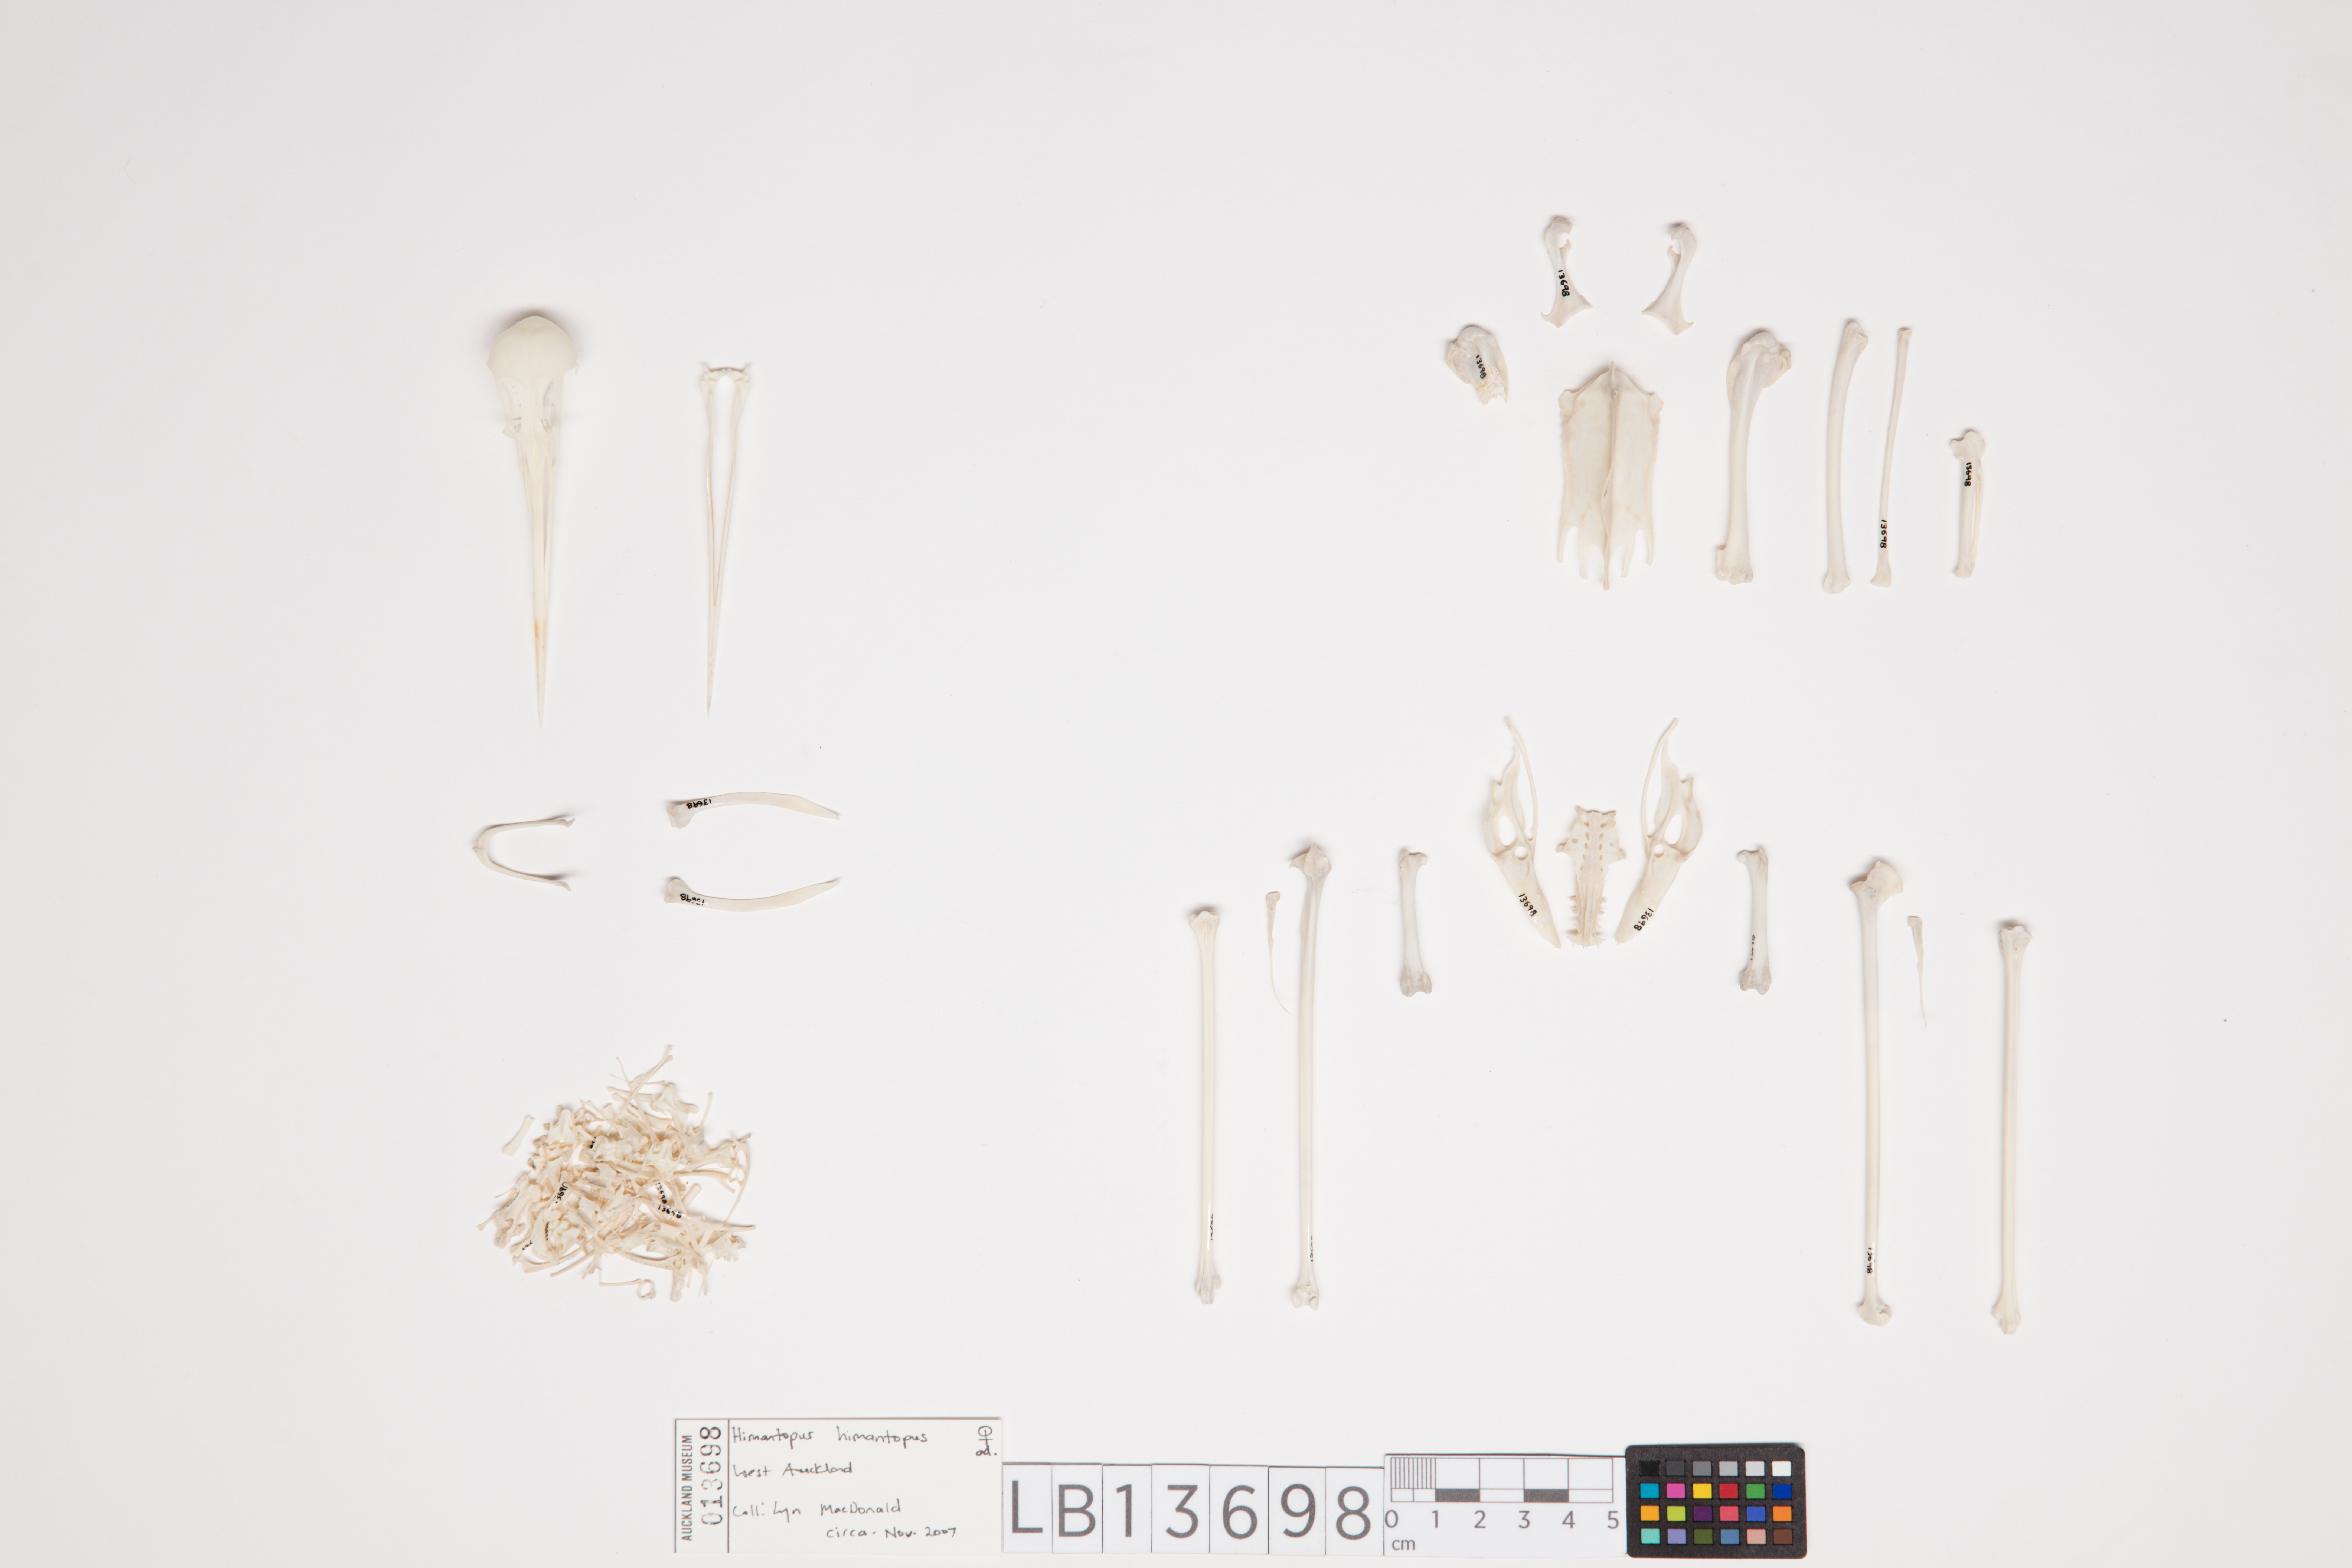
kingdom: Animalia
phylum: Chordata
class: Aves
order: Charadriiformes
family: Recurvirostridae
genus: Himantopus
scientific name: Himantopus himantopus
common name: Black-winged stilt
